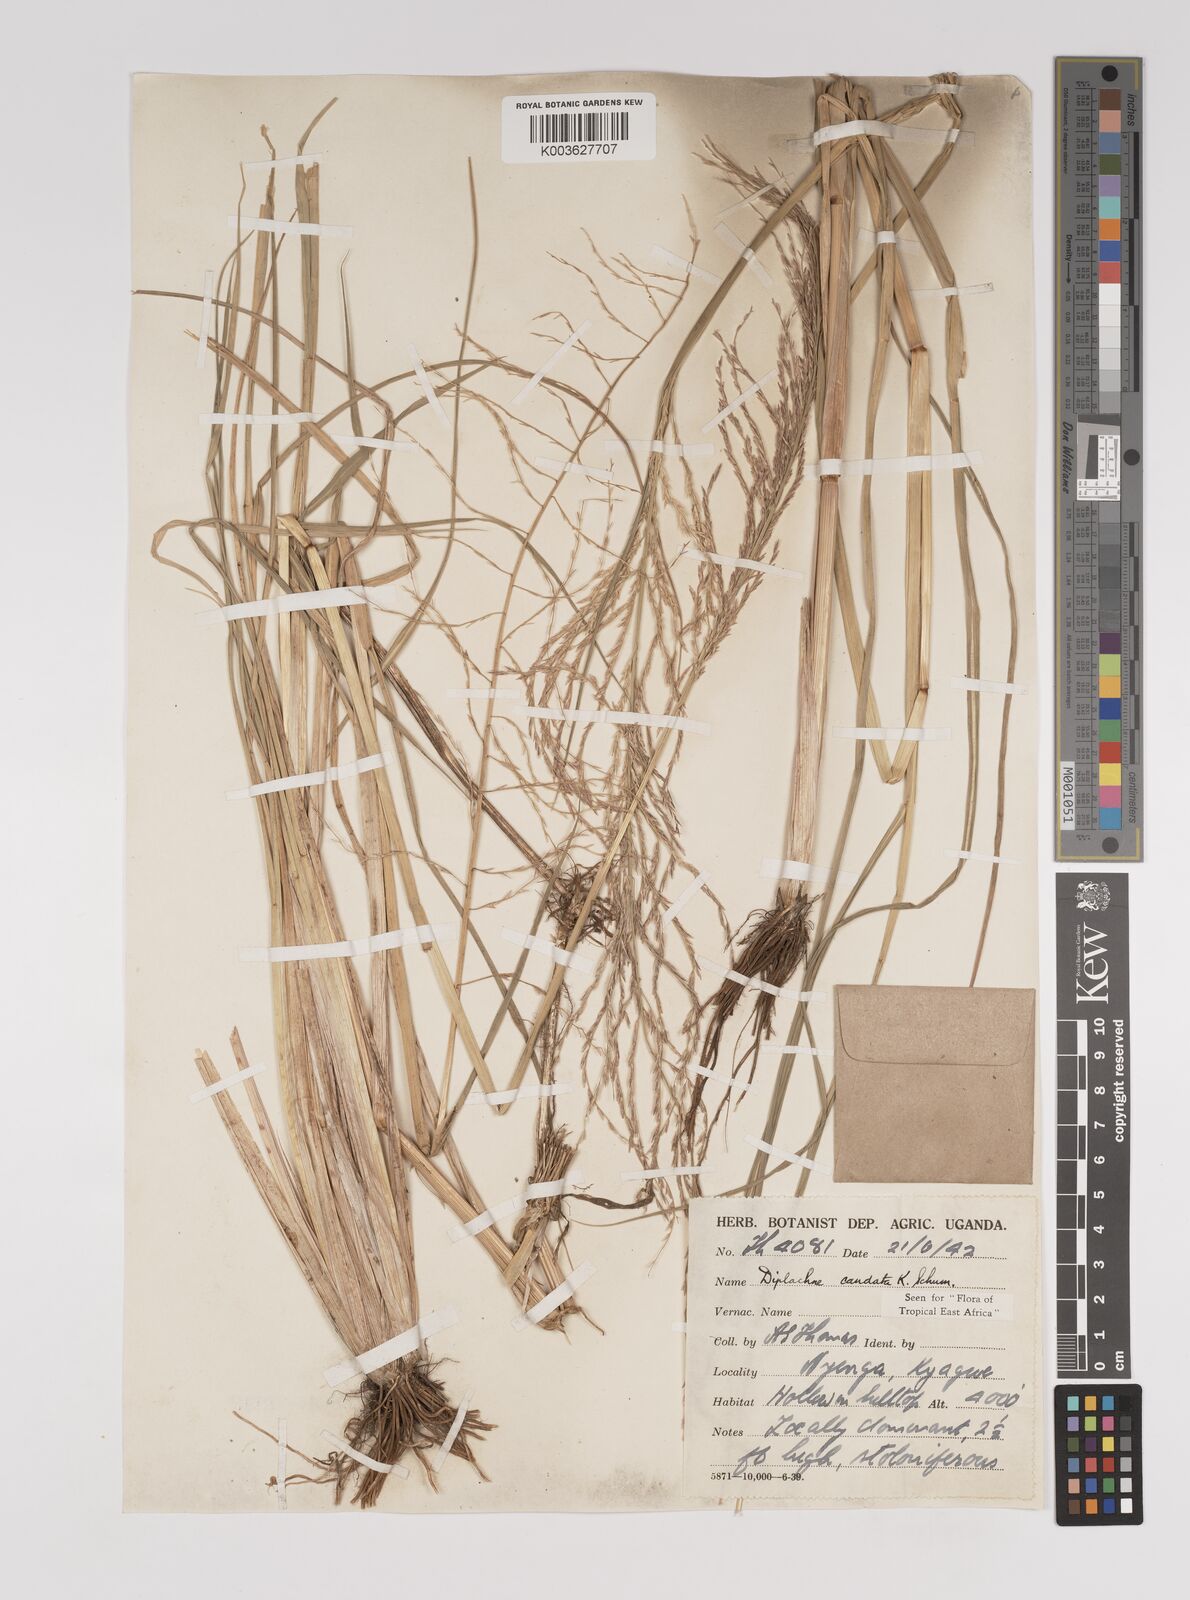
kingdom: Plantae
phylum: Tracheophyta
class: Liliopsida
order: Poales
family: Poaceae
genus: Leptochloa
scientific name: Leptochloa caudata
